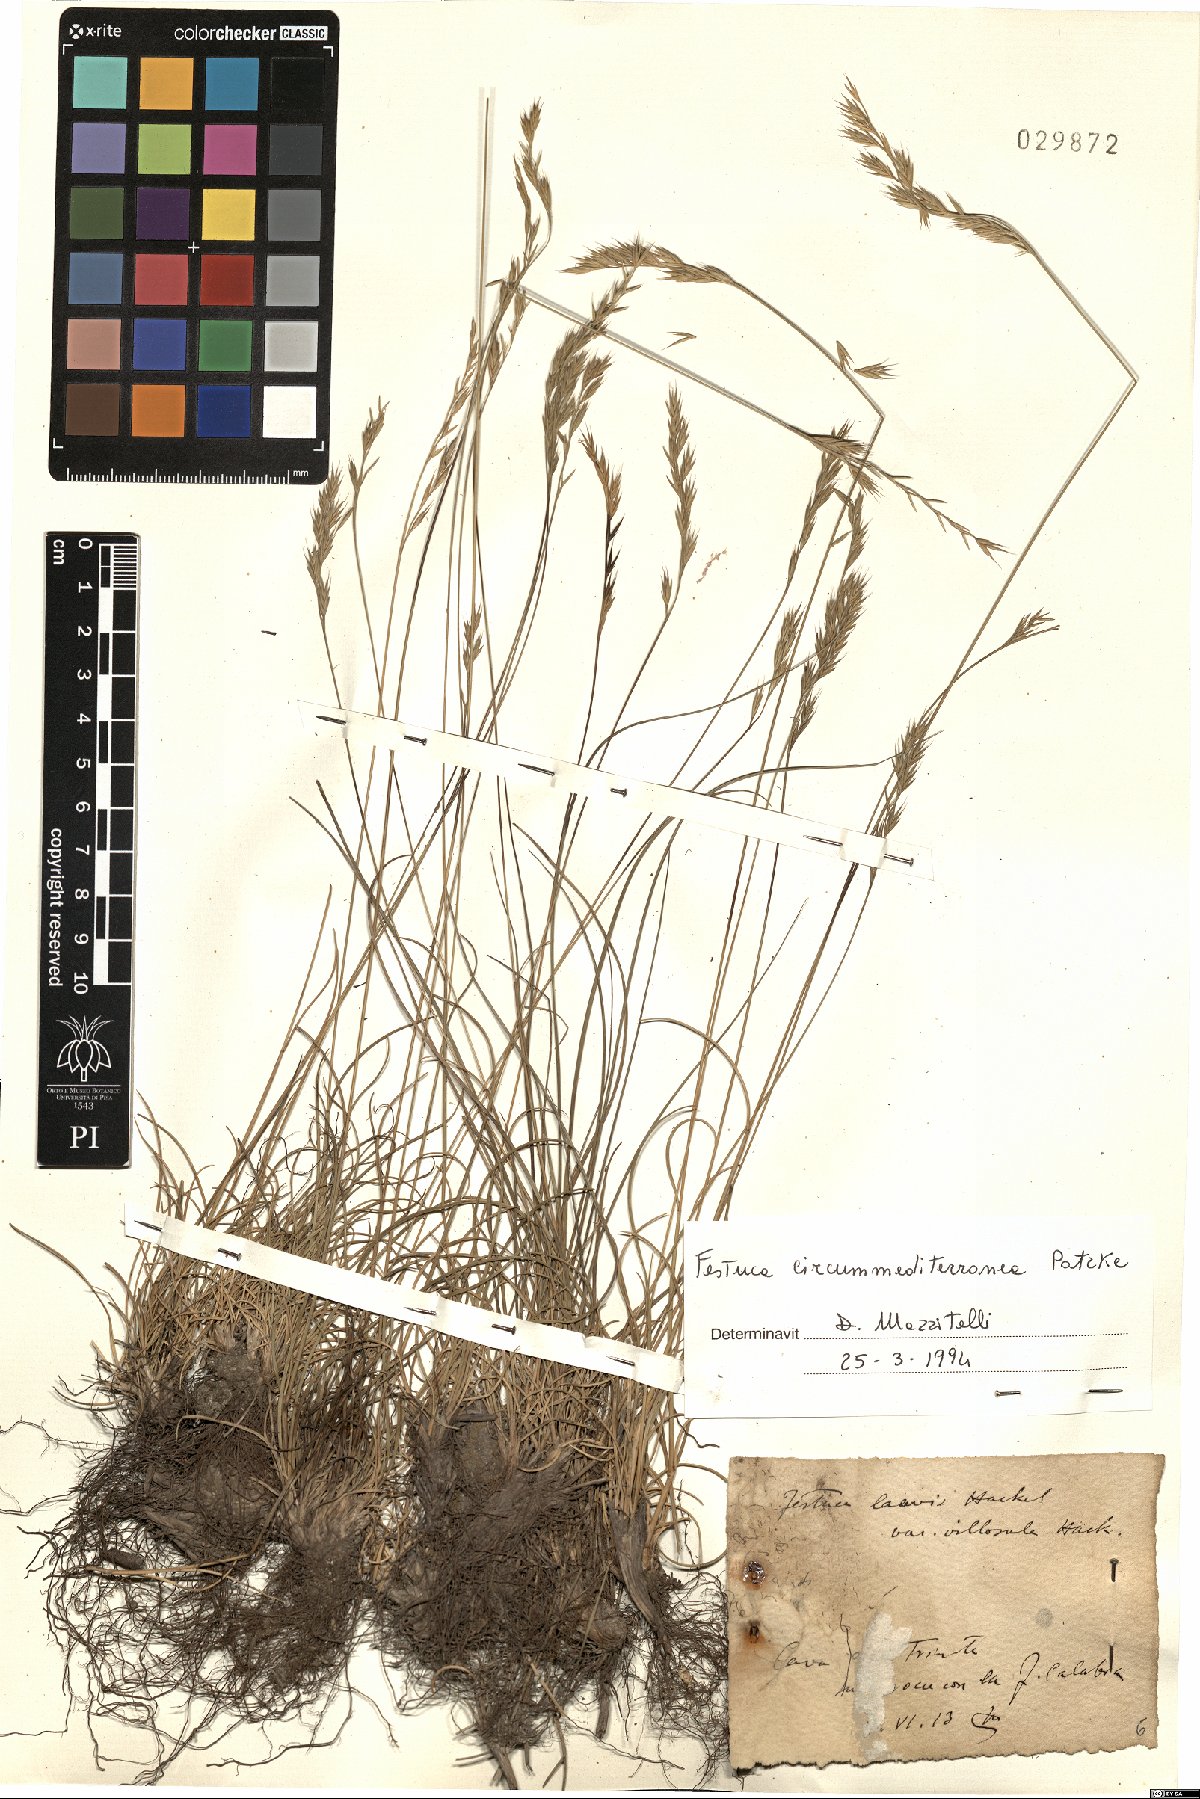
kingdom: Plantae
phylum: Tracheophyta
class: Liliopsida
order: Poales
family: Poaceae
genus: Festuca
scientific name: Festuca circummediterranea
